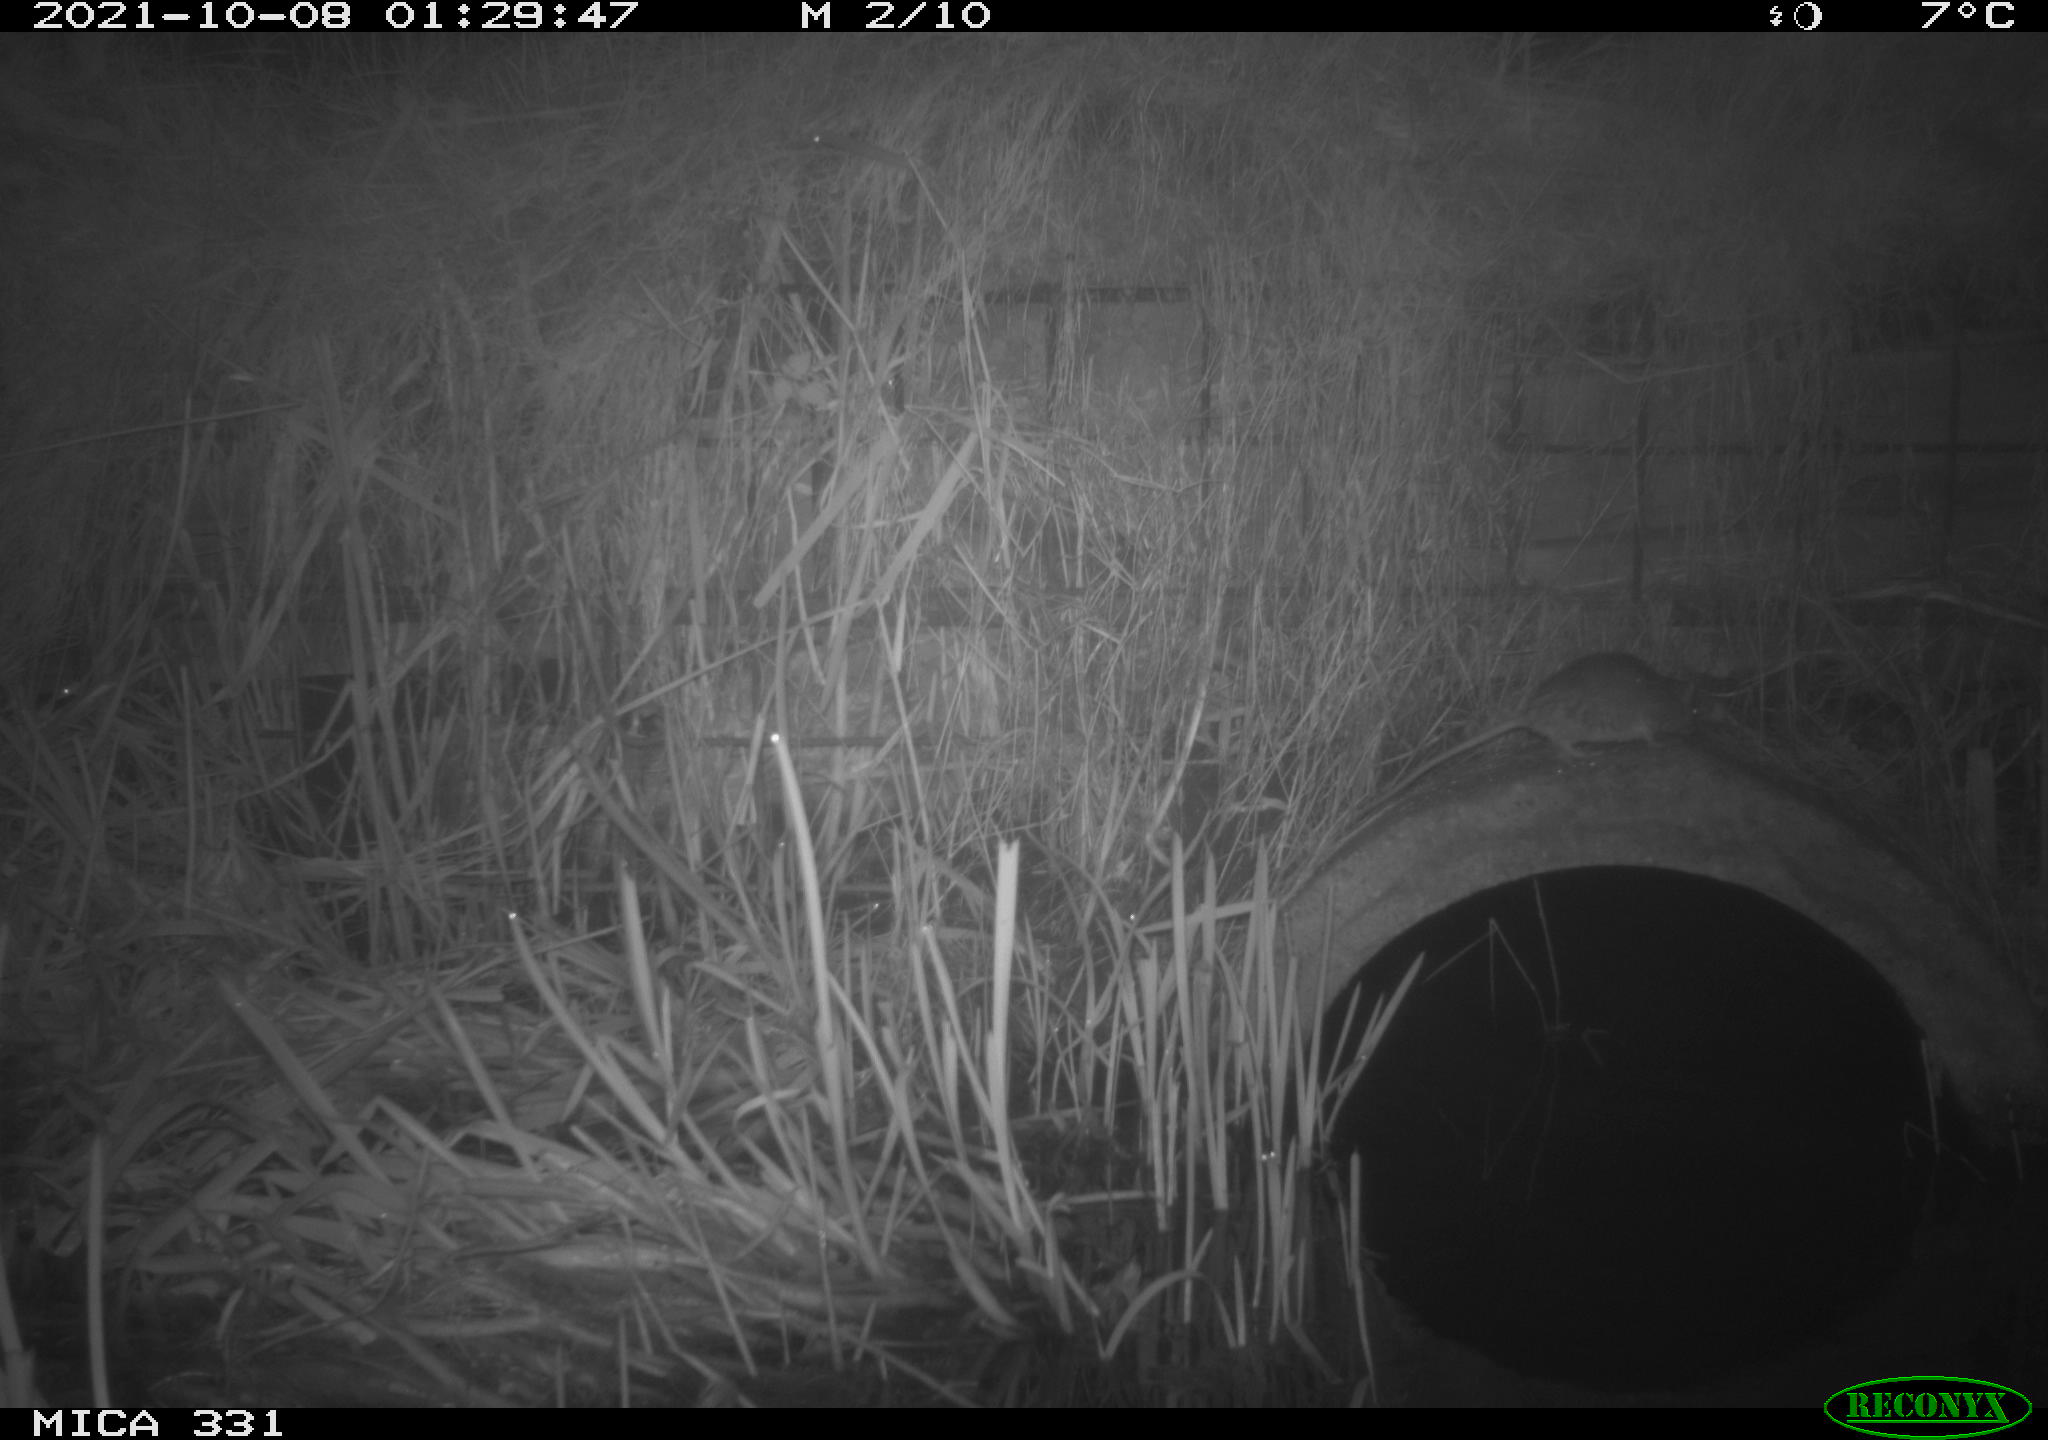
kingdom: Animalia
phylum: Chordata
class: Mammalia
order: Rodentia
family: Muridae
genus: Rattus
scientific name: Rattus norvegicus
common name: Brown rat
